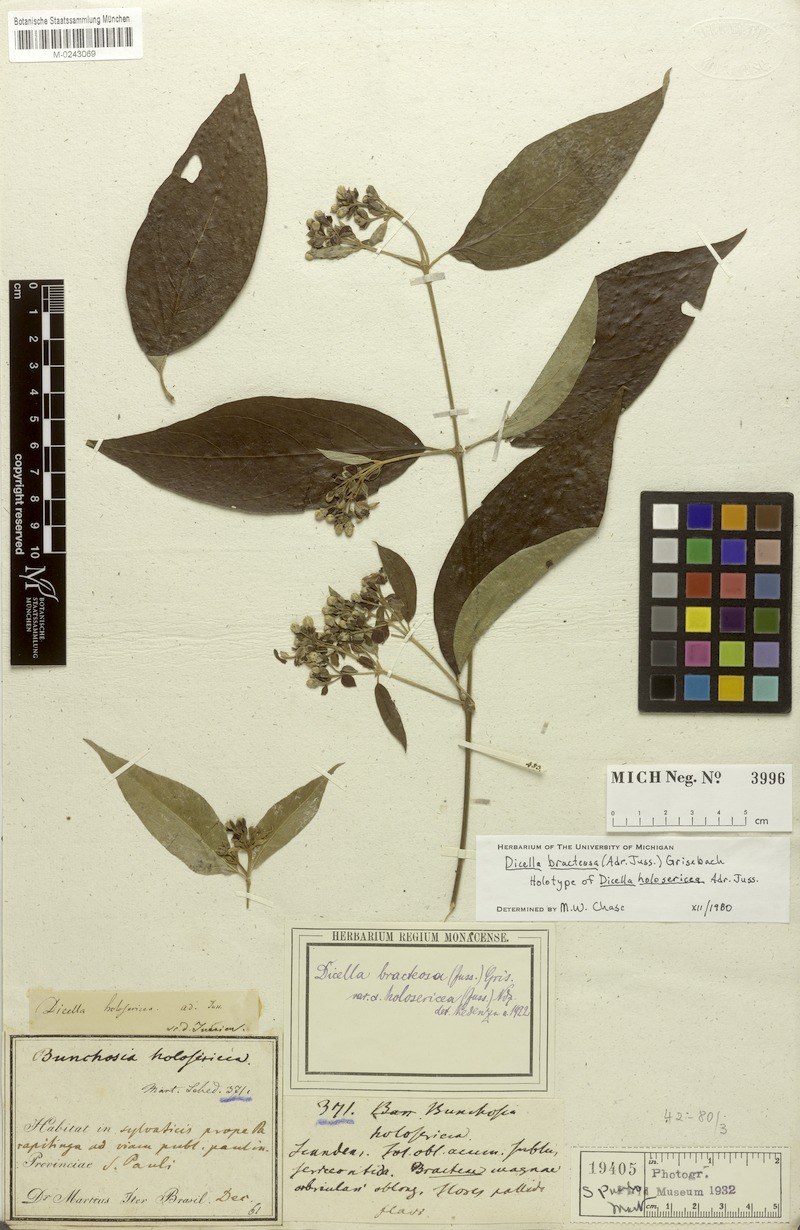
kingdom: Plantae
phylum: Tracheophyta
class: Magnoliopsida
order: Malpighiales
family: Malpighiaceae
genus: Dicella
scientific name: Dicella bracteosa
